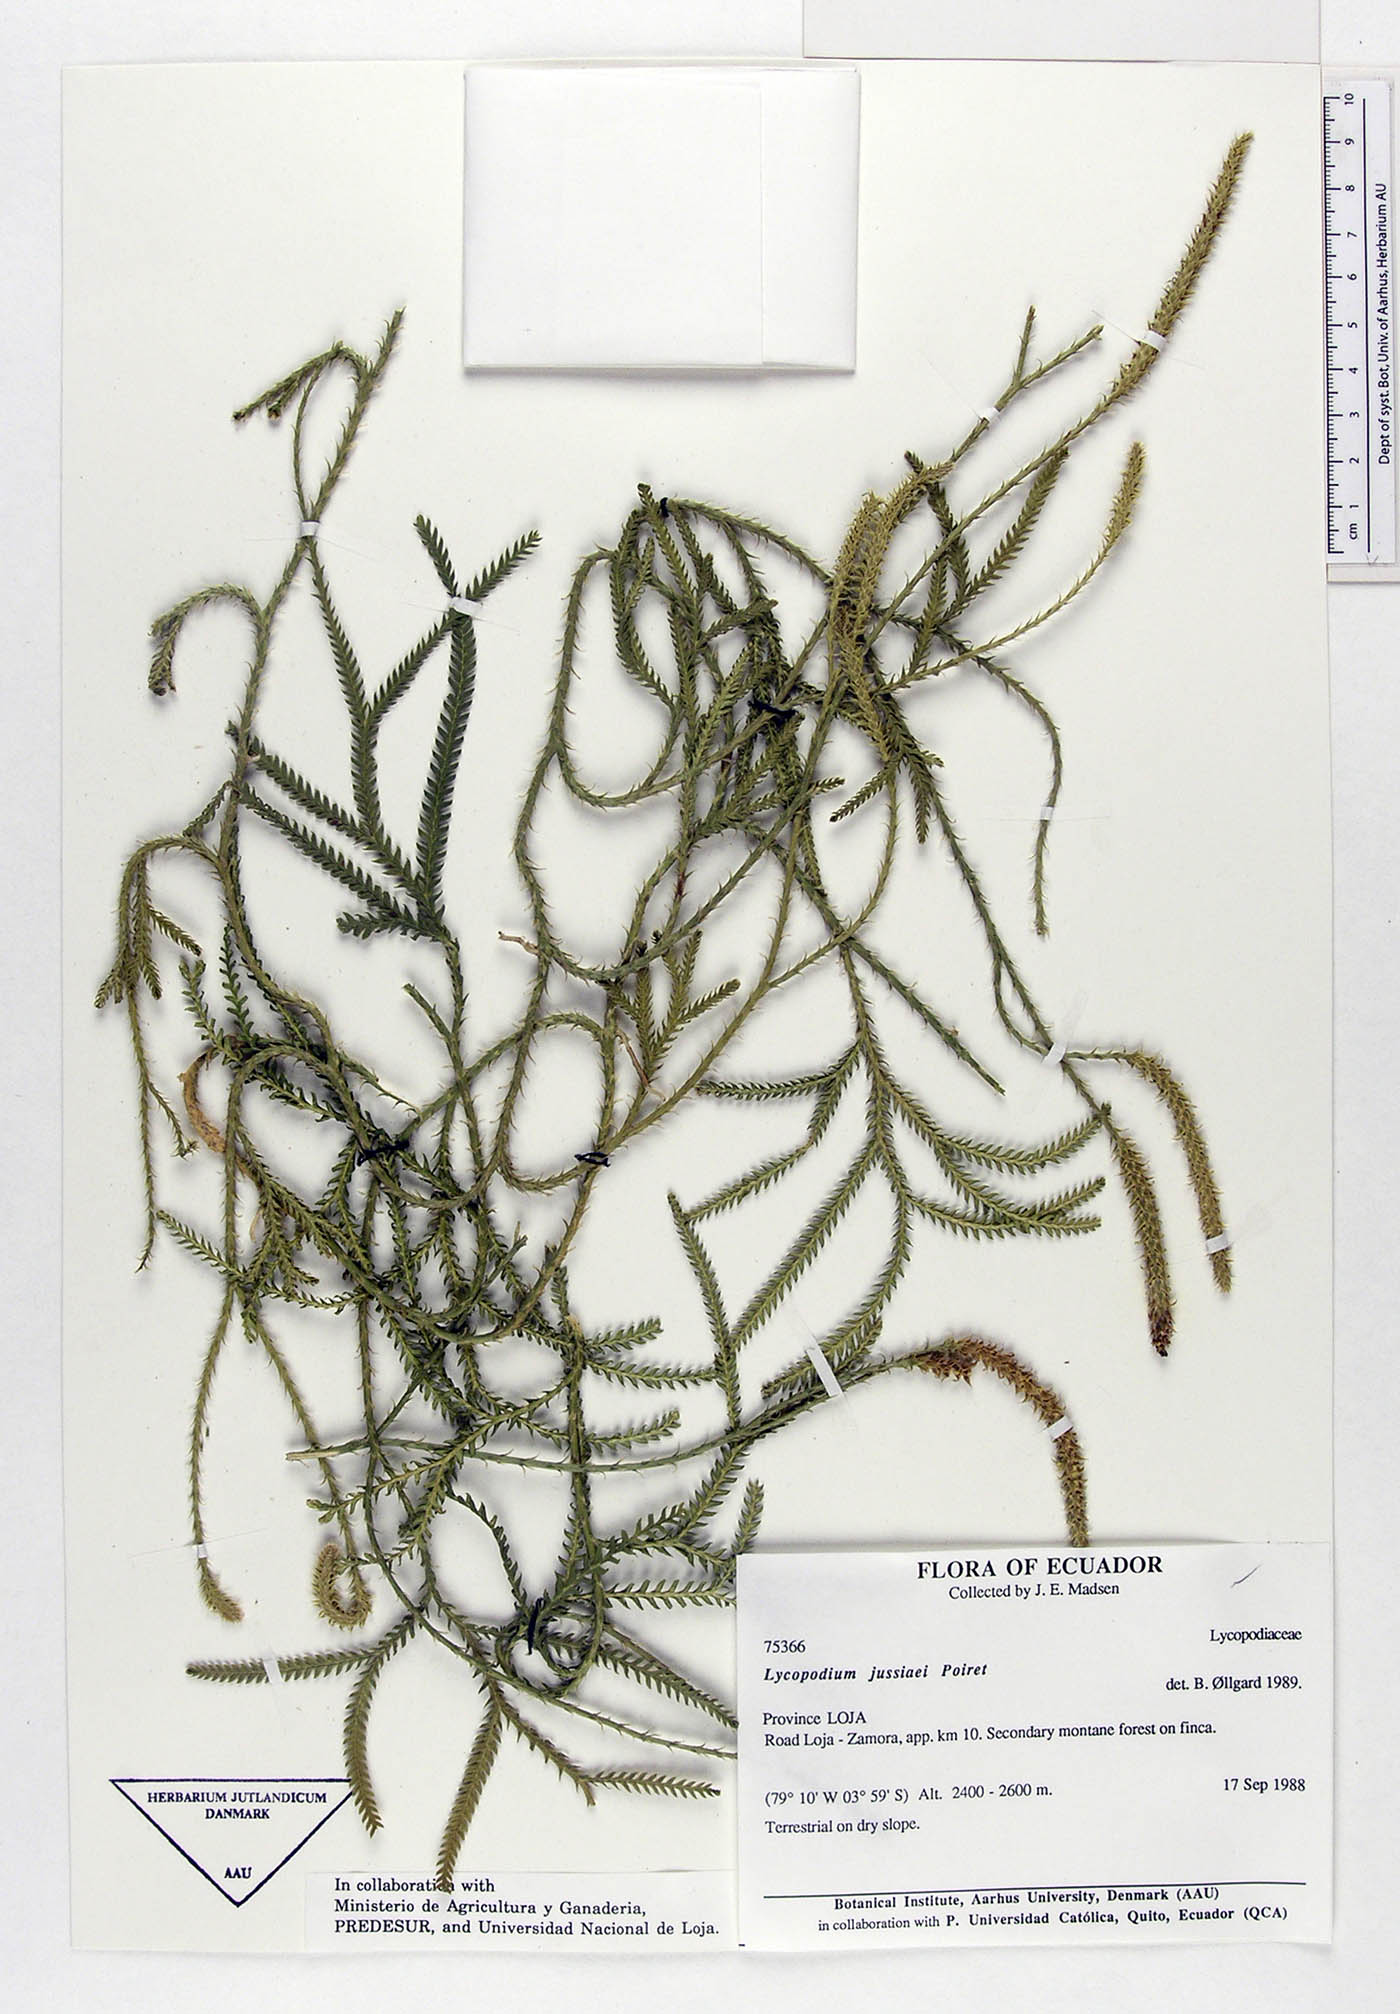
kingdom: Plantae
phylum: Tracheophyta
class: Lycopodiopsida
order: Lycopodiales
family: Lycopodiaceae
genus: Diphasium
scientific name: Diphasium jussiaei
